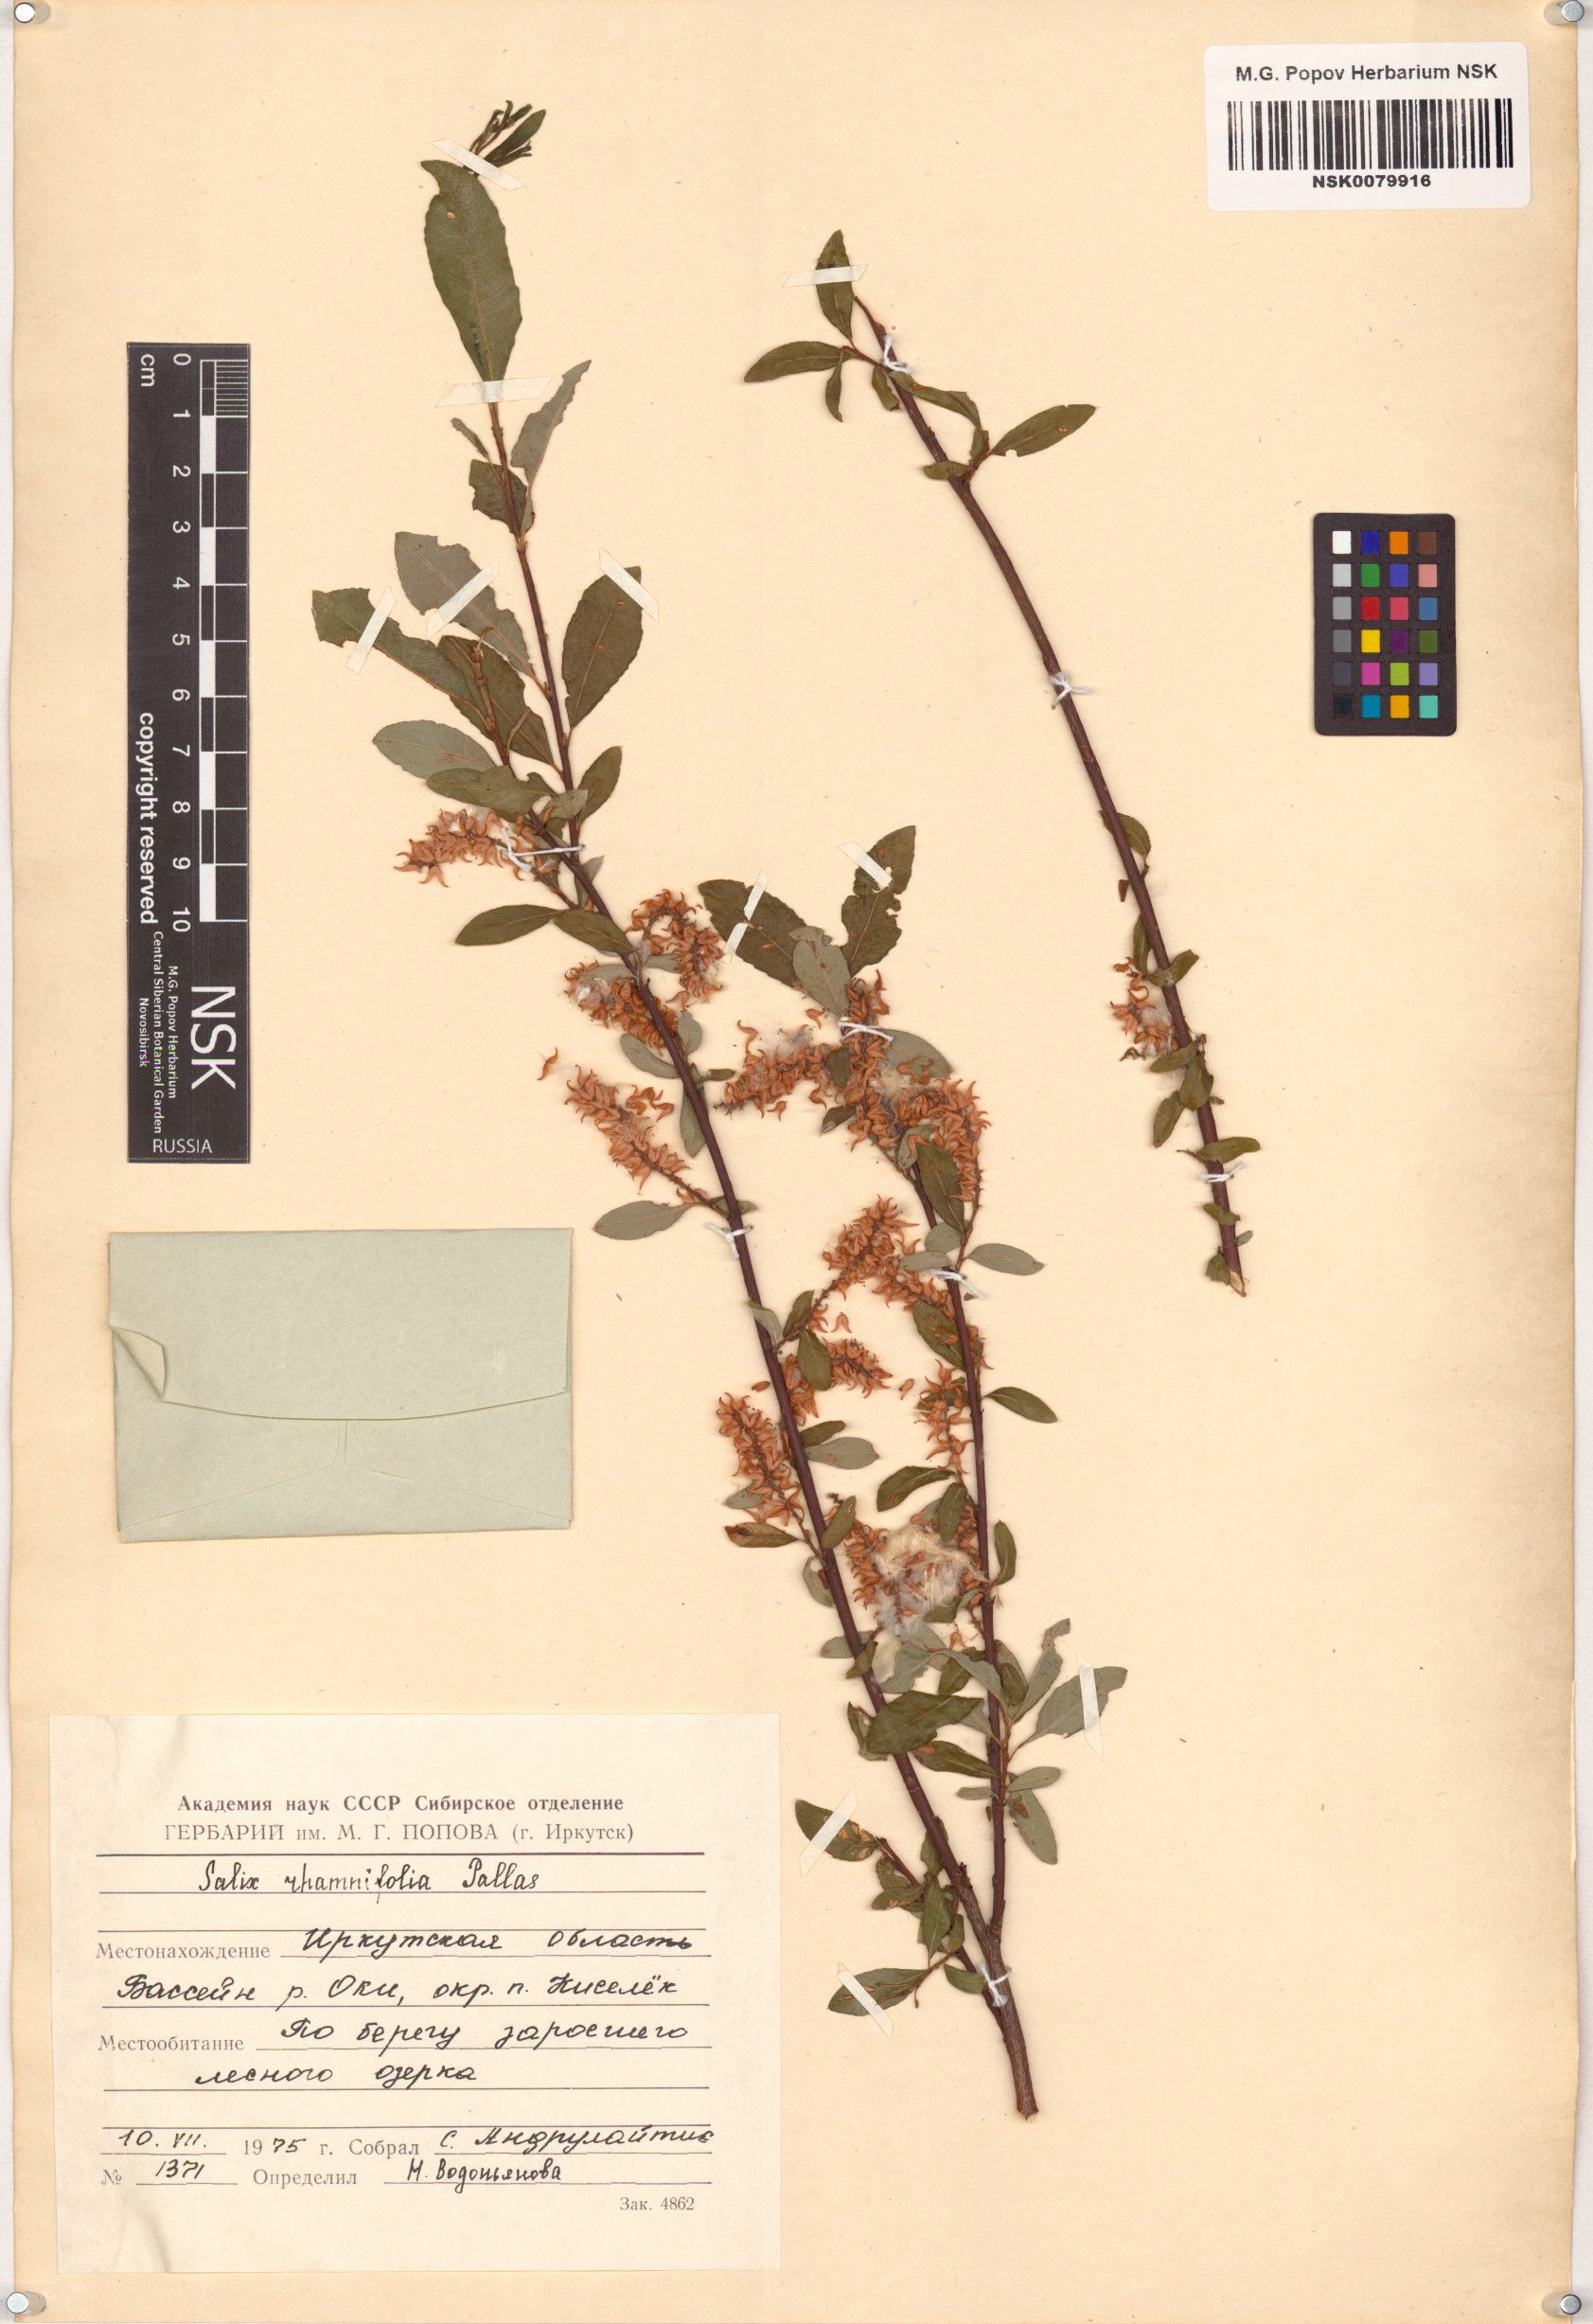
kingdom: Plantae
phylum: Tracheophyta
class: Magnoliopsida
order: Malpighiales
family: Salicaceae
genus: Salix
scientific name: Salix rhamnifolia
